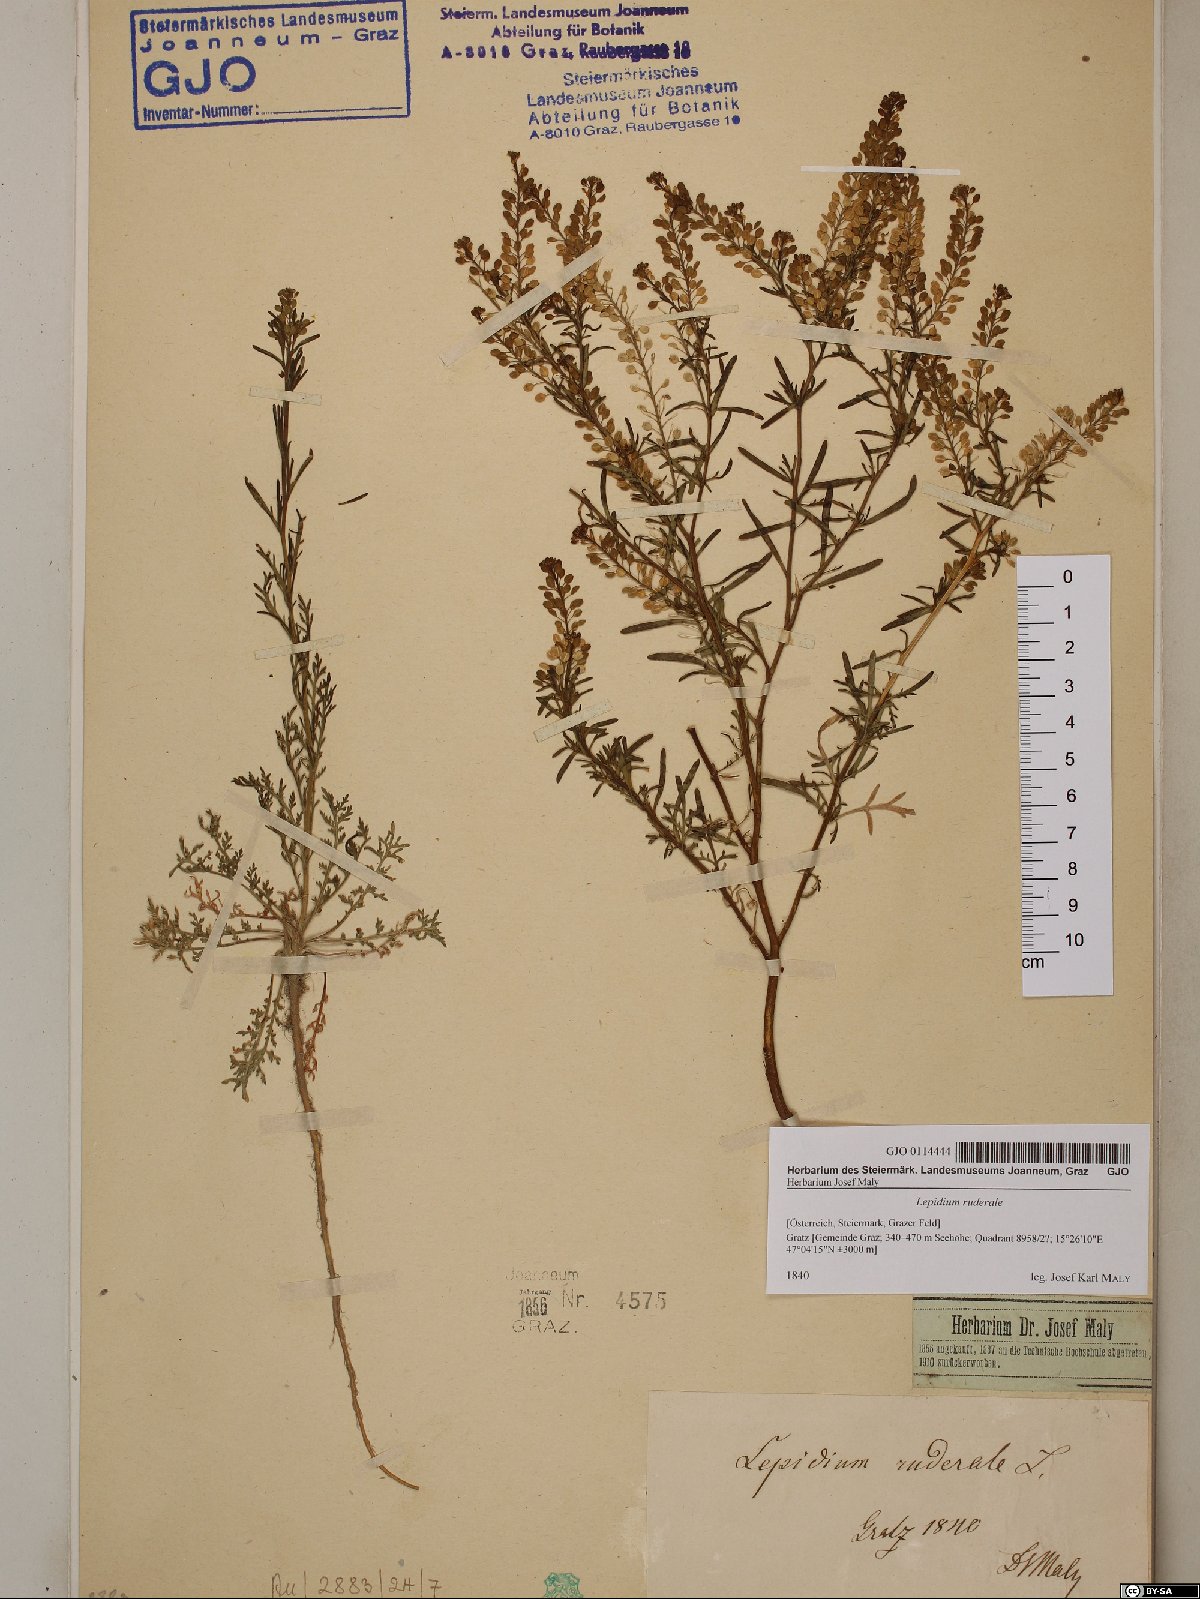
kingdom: Plantae
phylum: Tracheophyta
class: Magnoliopsida
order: Brassicales
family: Brassicaceae
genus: Lepidium
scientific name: Lepidium ruderale
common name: Narrow-leaved pepperwort
